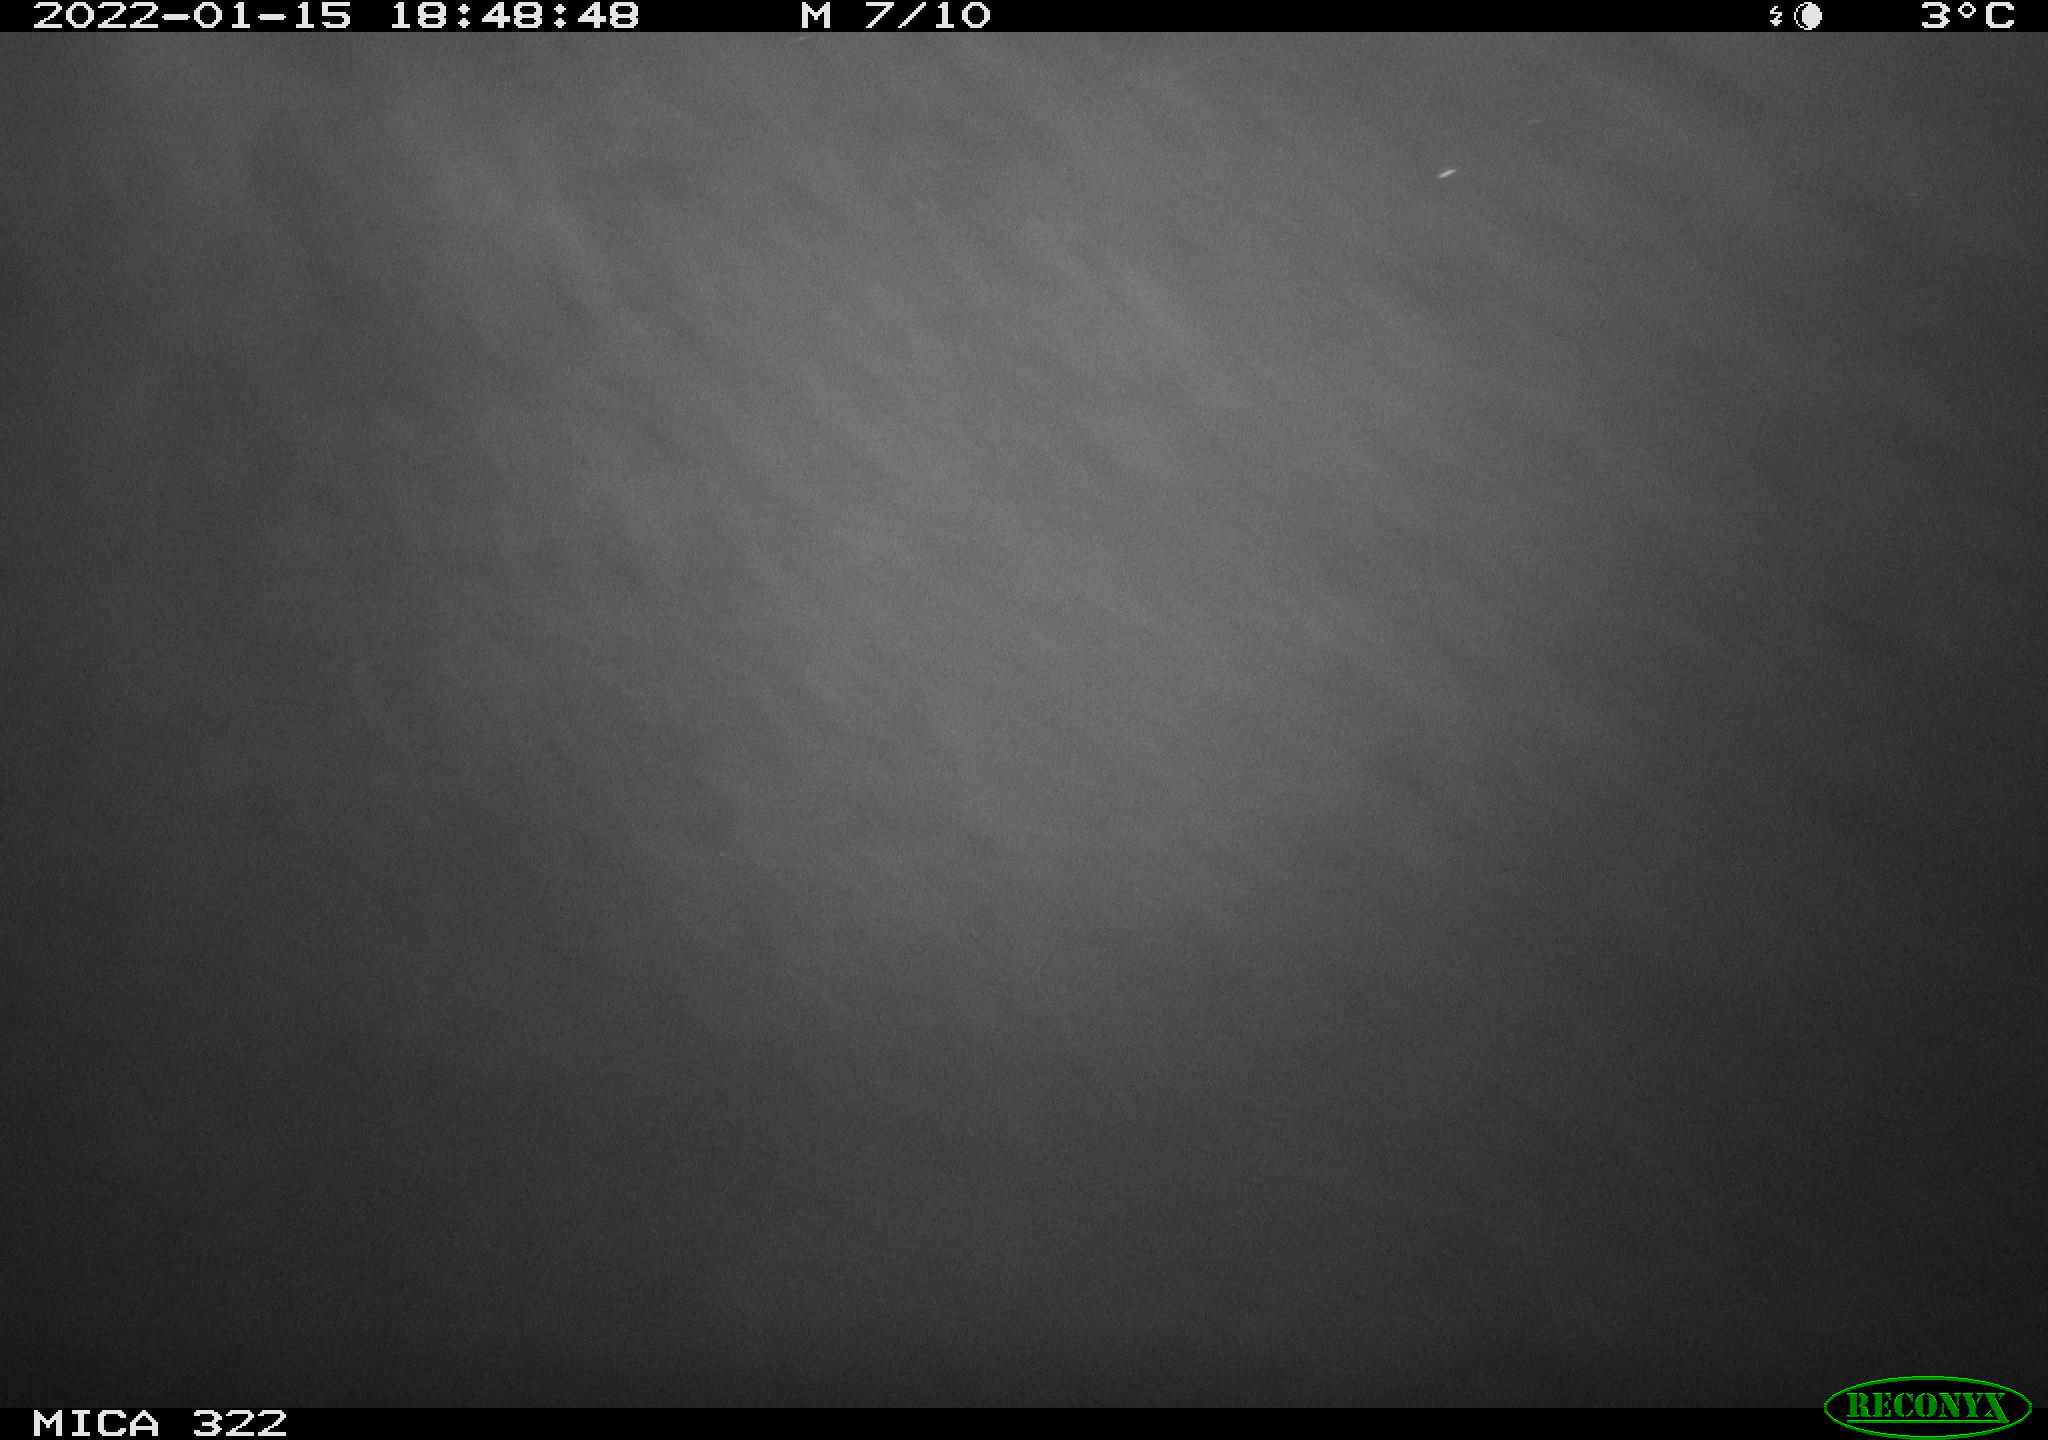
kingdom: Animalia
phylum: Chordata
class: Aves
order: Gruiformes
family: Rallidae
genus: Fulica
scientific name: Fulica atra
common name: Eurasian coot
